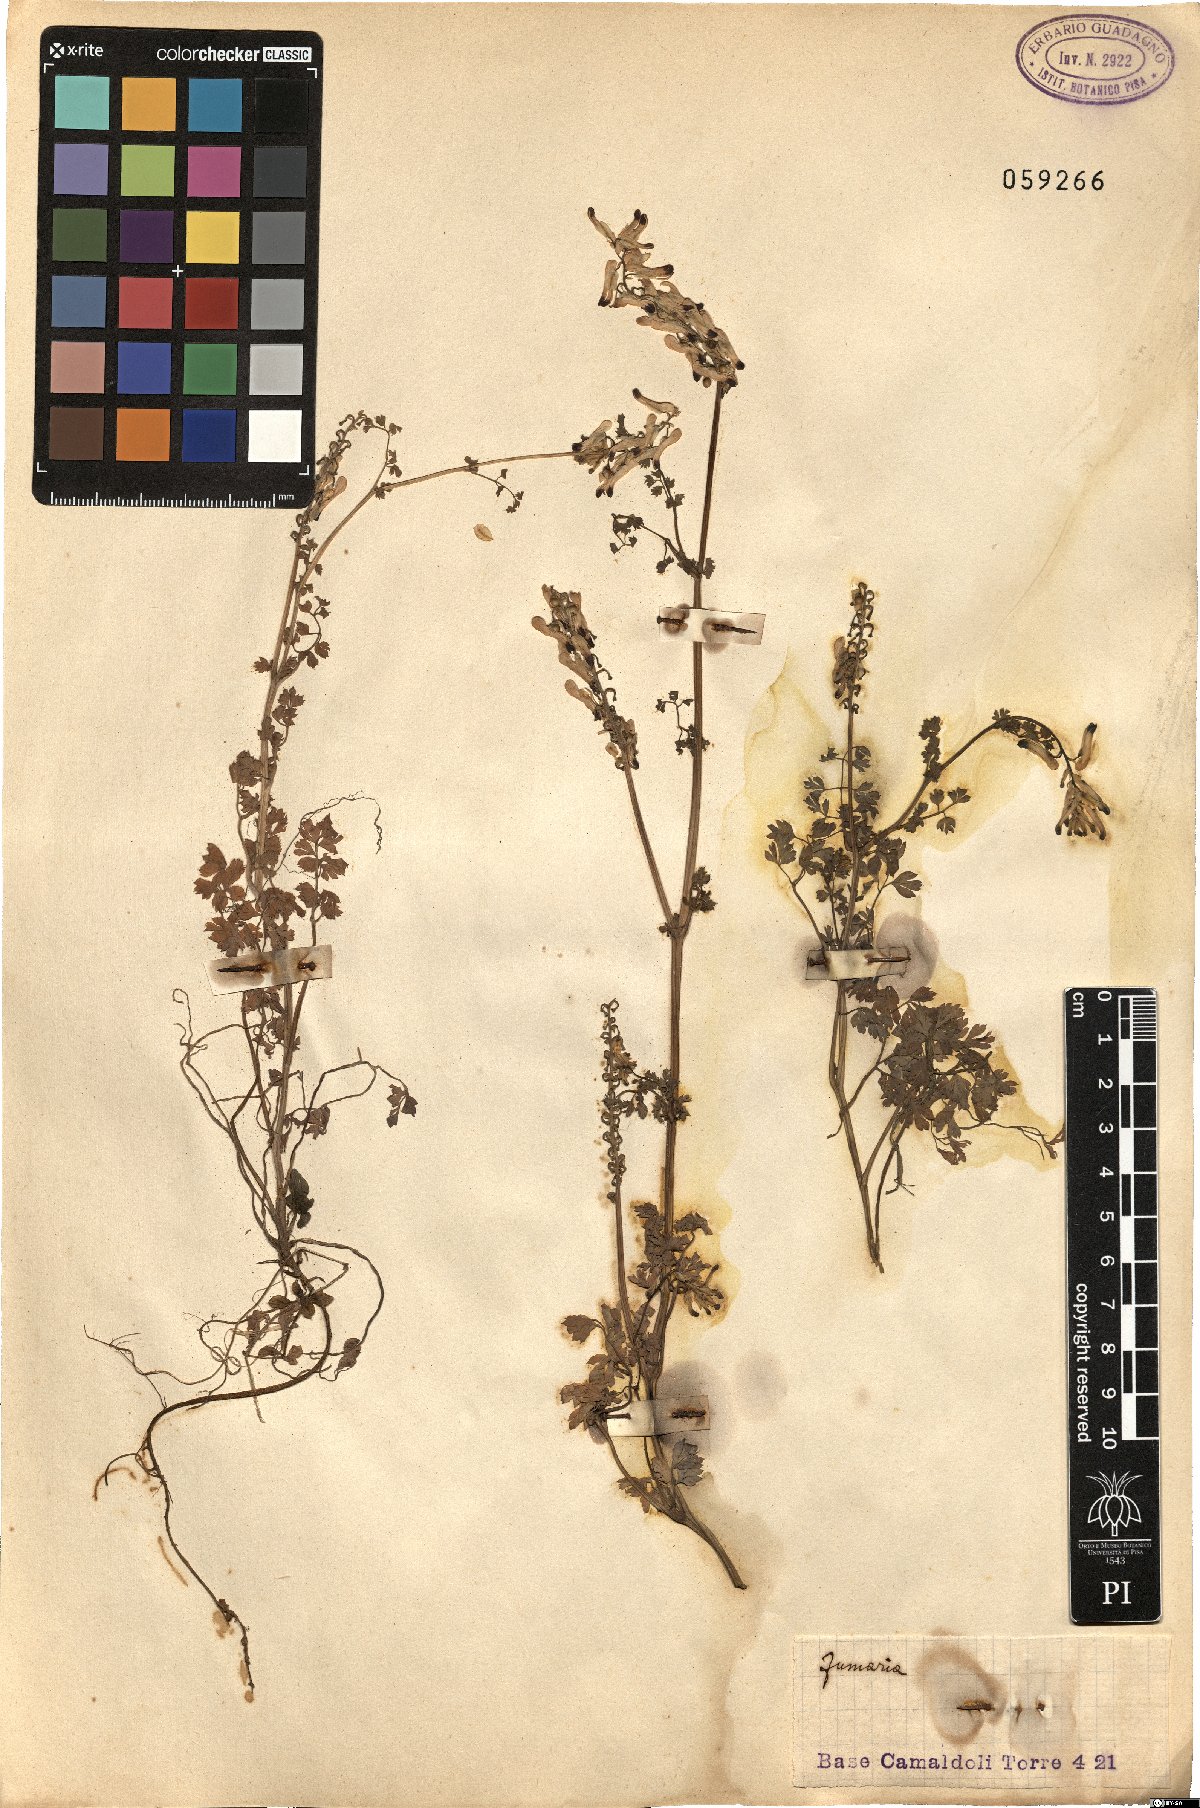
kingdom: Plantae
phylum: Tracheophyta
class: Magnoliopsida
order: Ranunculales
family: Papaveraceae
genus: Fumaria
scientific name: Fumaria
